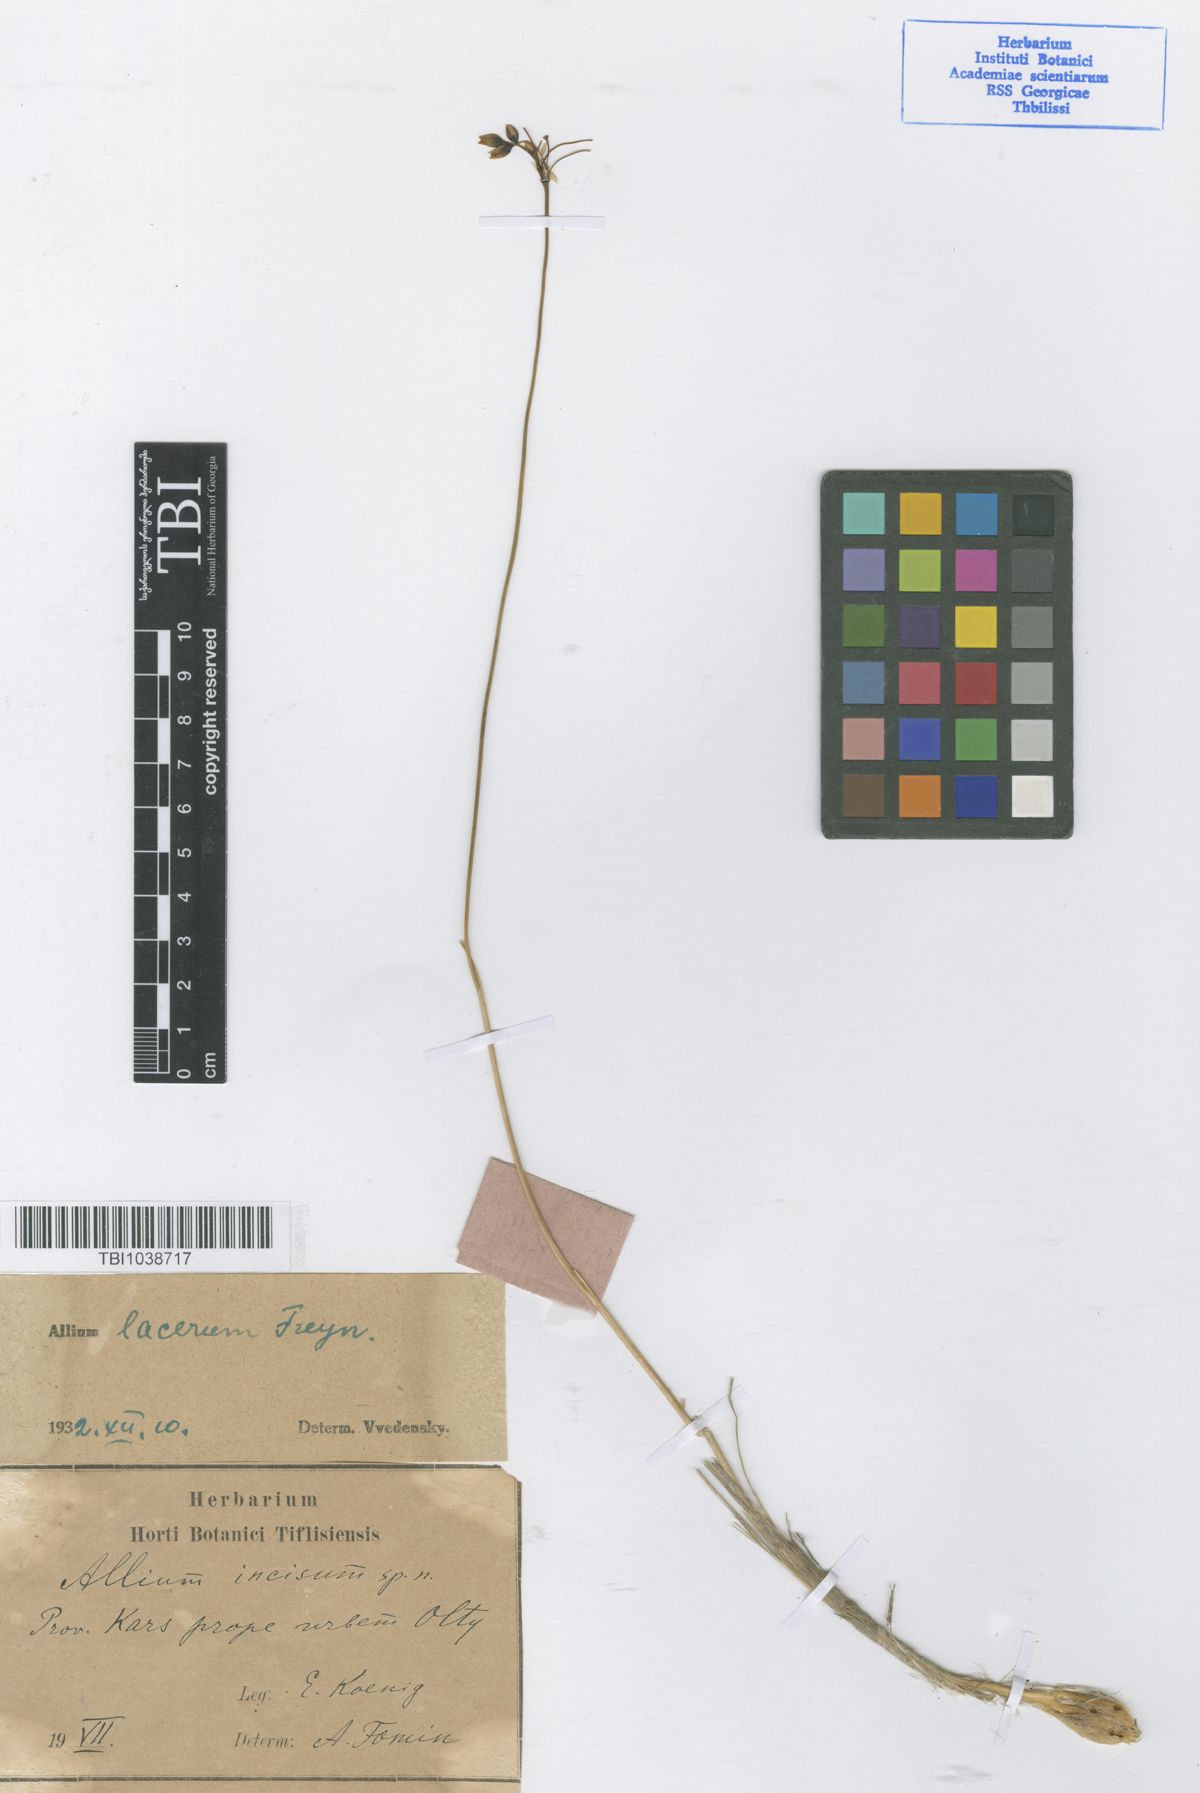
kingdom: Plantae
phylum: Tracheophyta
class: Liliopsida
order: Asparagales
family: Amaryllidaceae
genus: Allium
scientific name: Allium callidyction
